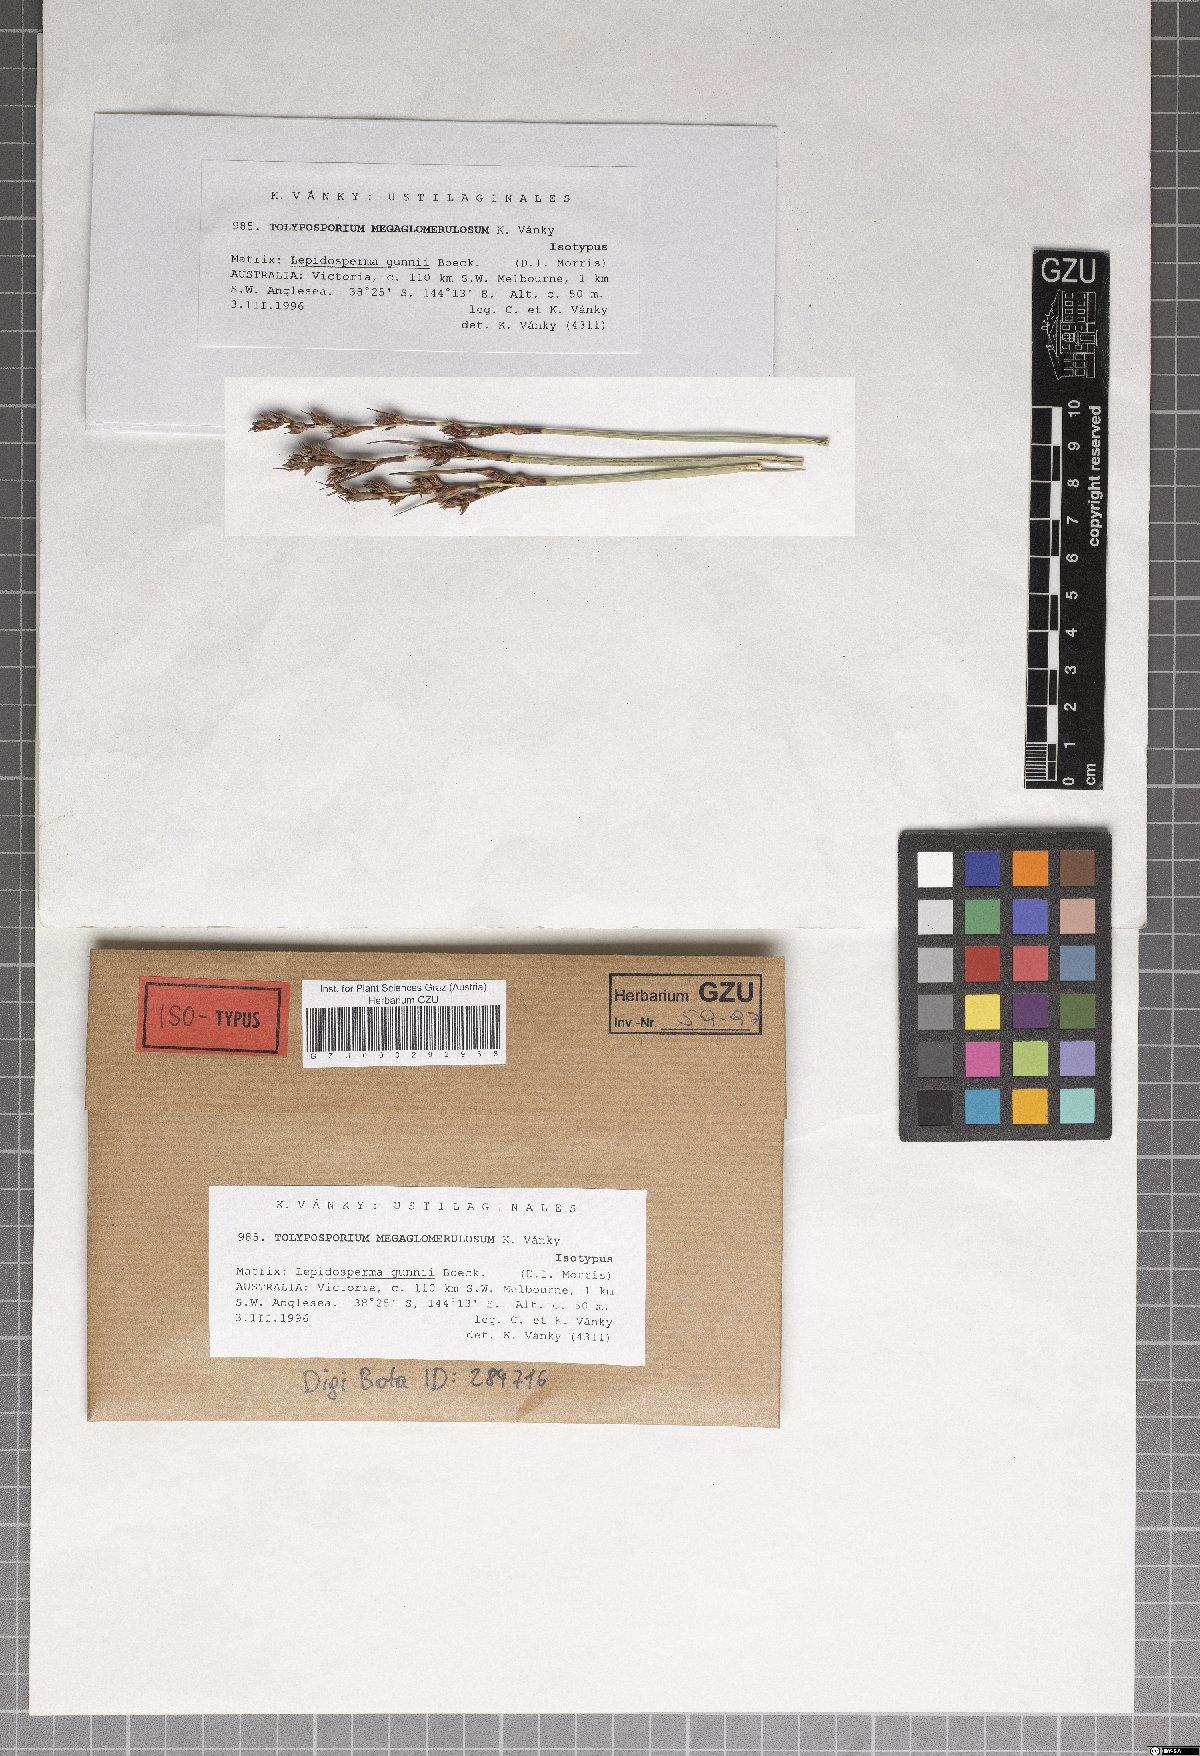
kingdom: Fungi
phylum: Basidiomycota
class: Ustilaginomycetes
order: Ustilaginales
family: Anthracoideaceae
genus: Moreaua
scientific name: Moreaua megaglomerulosa
